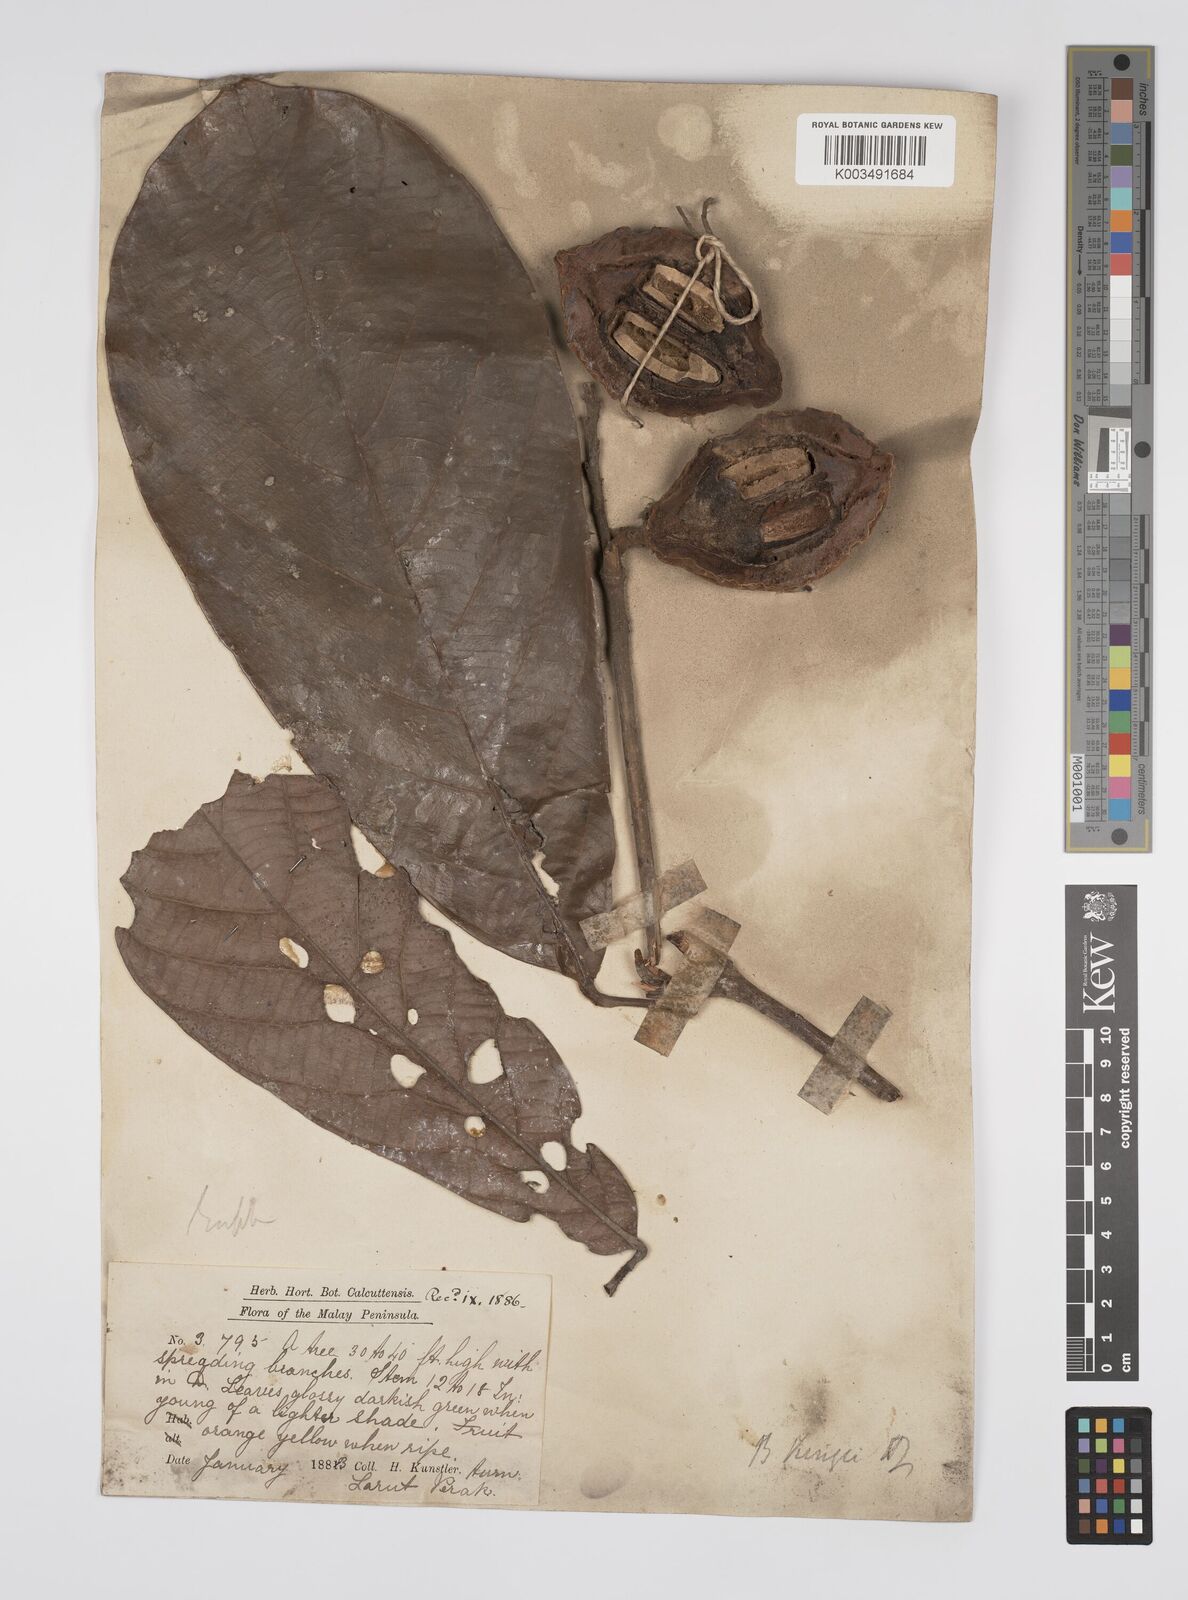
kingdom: Plantae
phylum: Tracheophyta
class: Magnoliopsida
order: Malpighiales
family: Euphorbiaceae
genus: Ptychopyxis
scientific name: Ptychopyxis kingii
